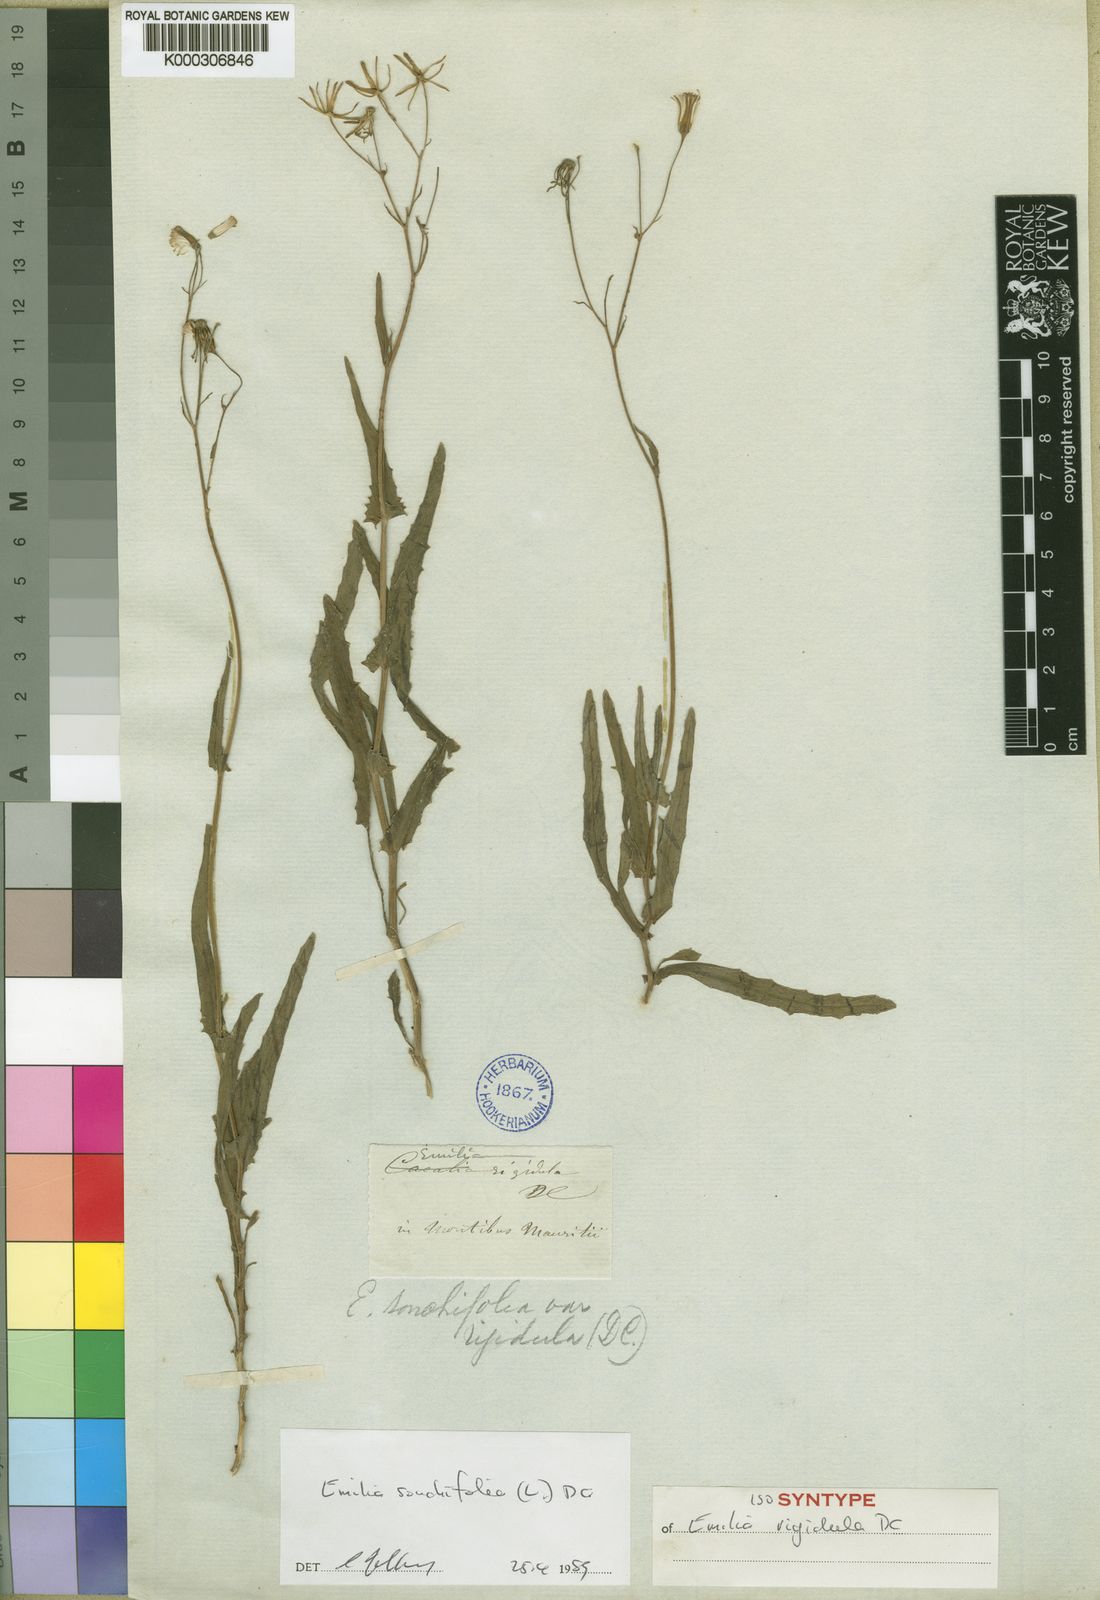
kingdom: Plantae
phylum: Tracheophyta
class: Magnoliopsida
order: Asterales
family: Asteraceae
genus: Emilia
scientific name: Emilia
